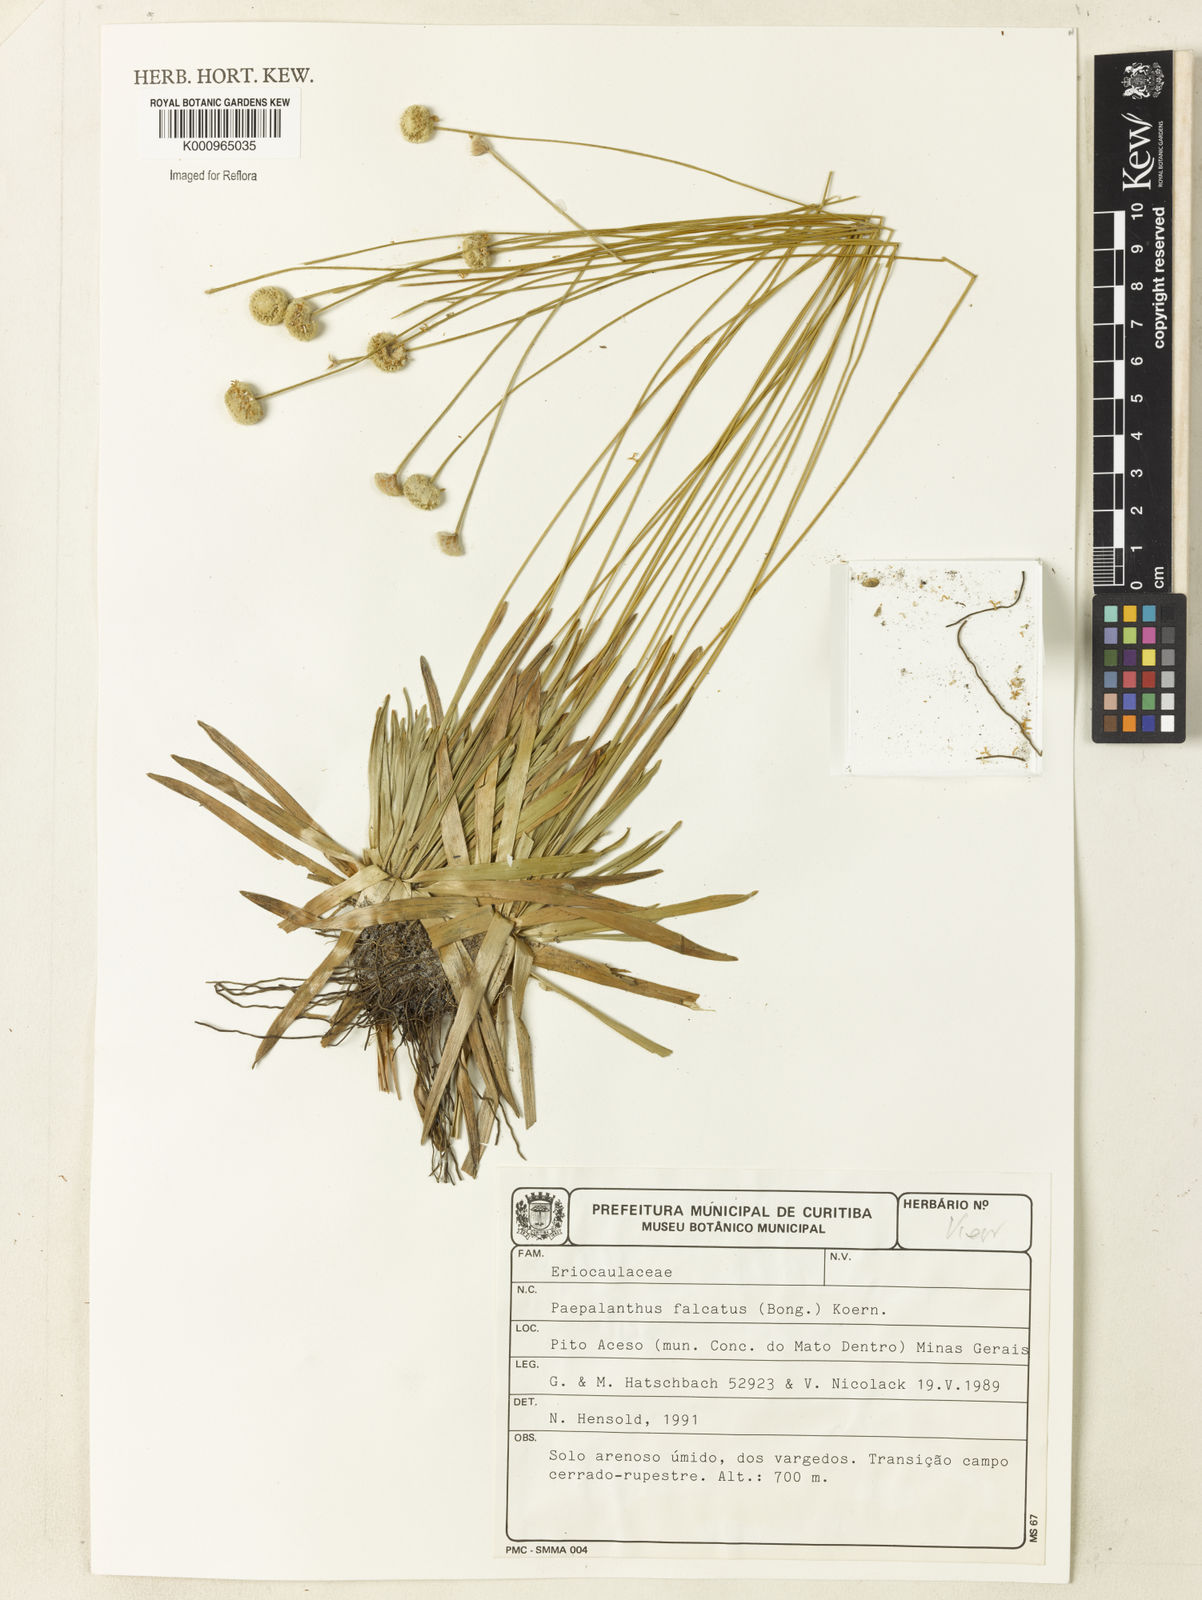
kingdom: Plantae
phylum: Tracheophyta
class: Liliopsida
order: Poales
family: Eriocaulaceae
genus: Paepalanthus
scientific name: Paepalanthus
